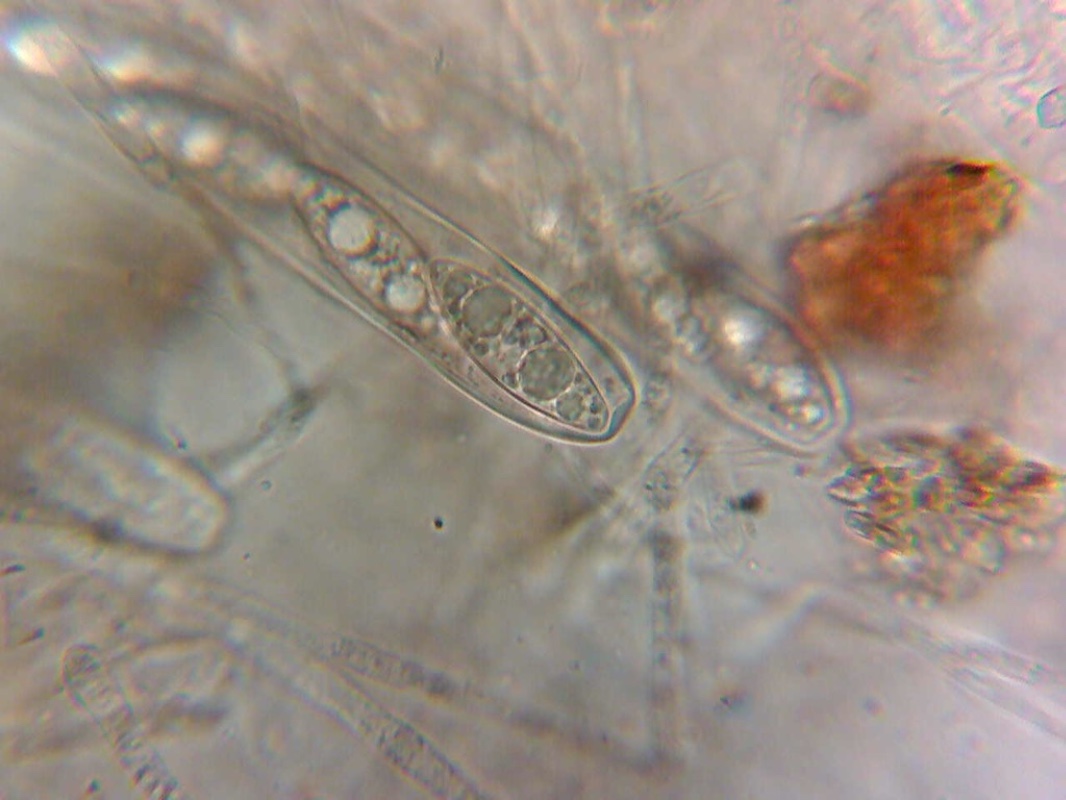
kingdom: Fungi
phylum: Ascomycota
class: Pezizomycetes
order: Pezizales
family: Pezizaceae
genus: Ionopezia
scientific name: Ionopezia gerardii
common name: tensporet bægersvamp
